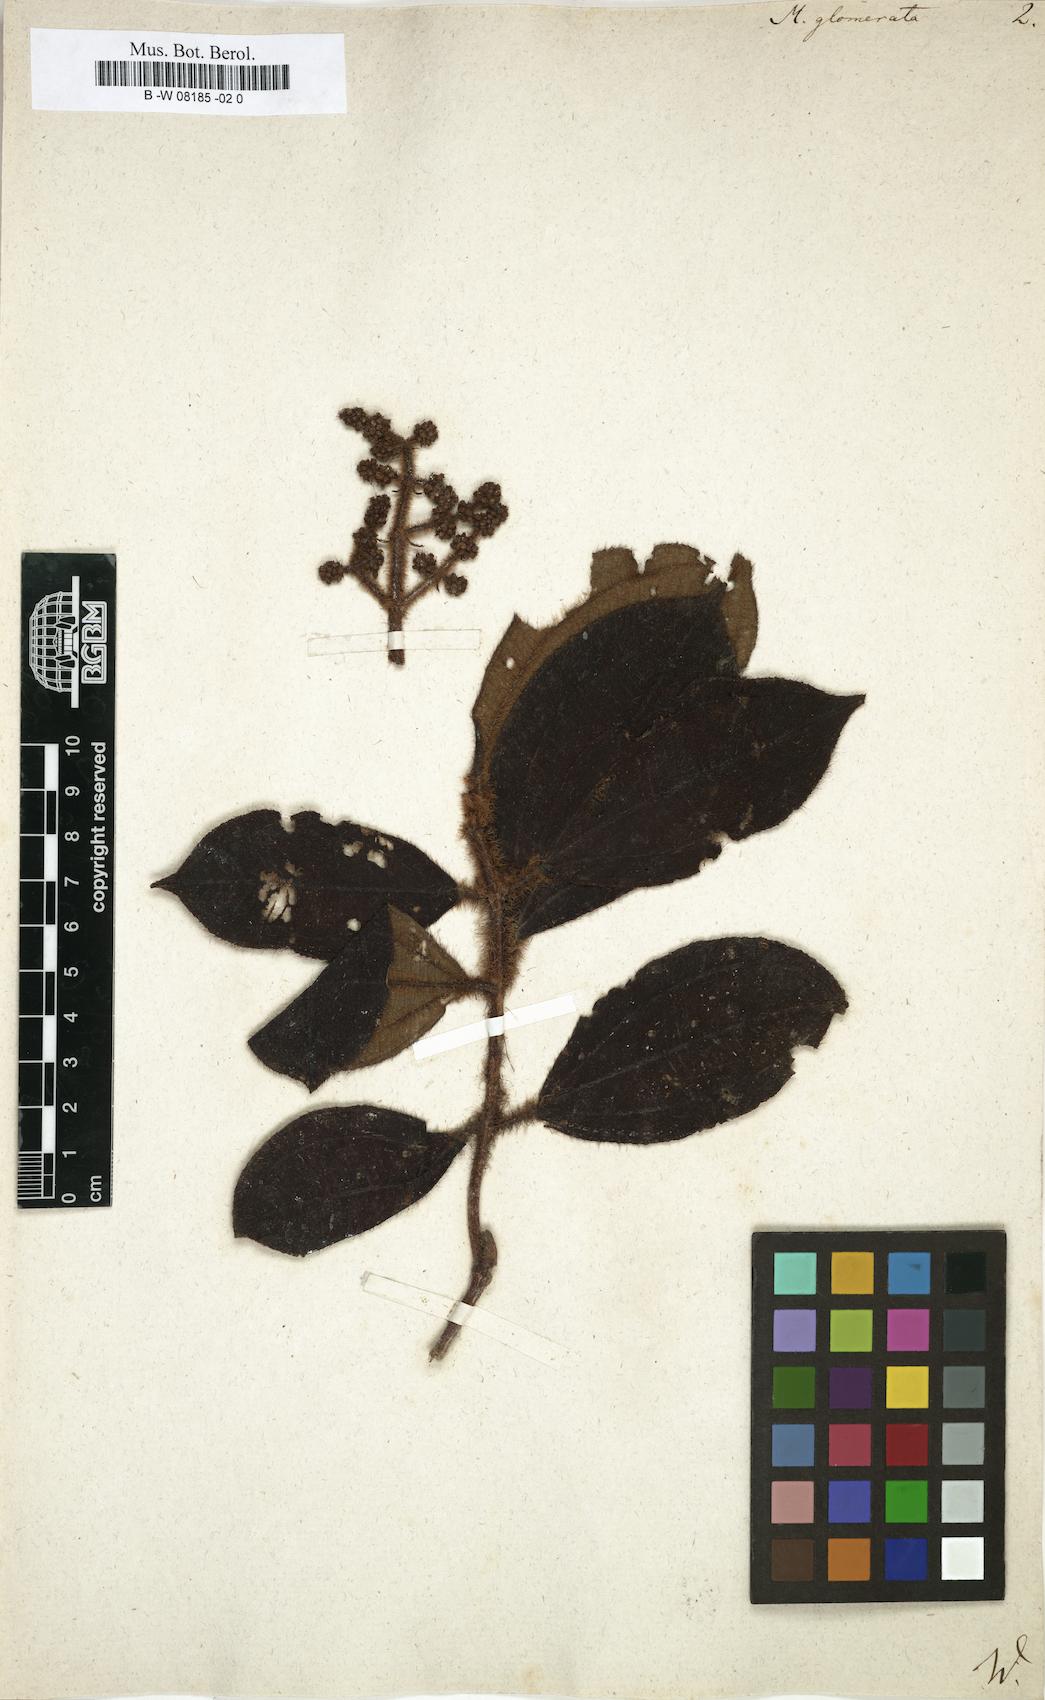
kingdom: Plantae
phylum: Tracheophyta
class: Magnoliopsida
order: Myrtales
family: Melastomataceae
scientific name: Melastomataceae
